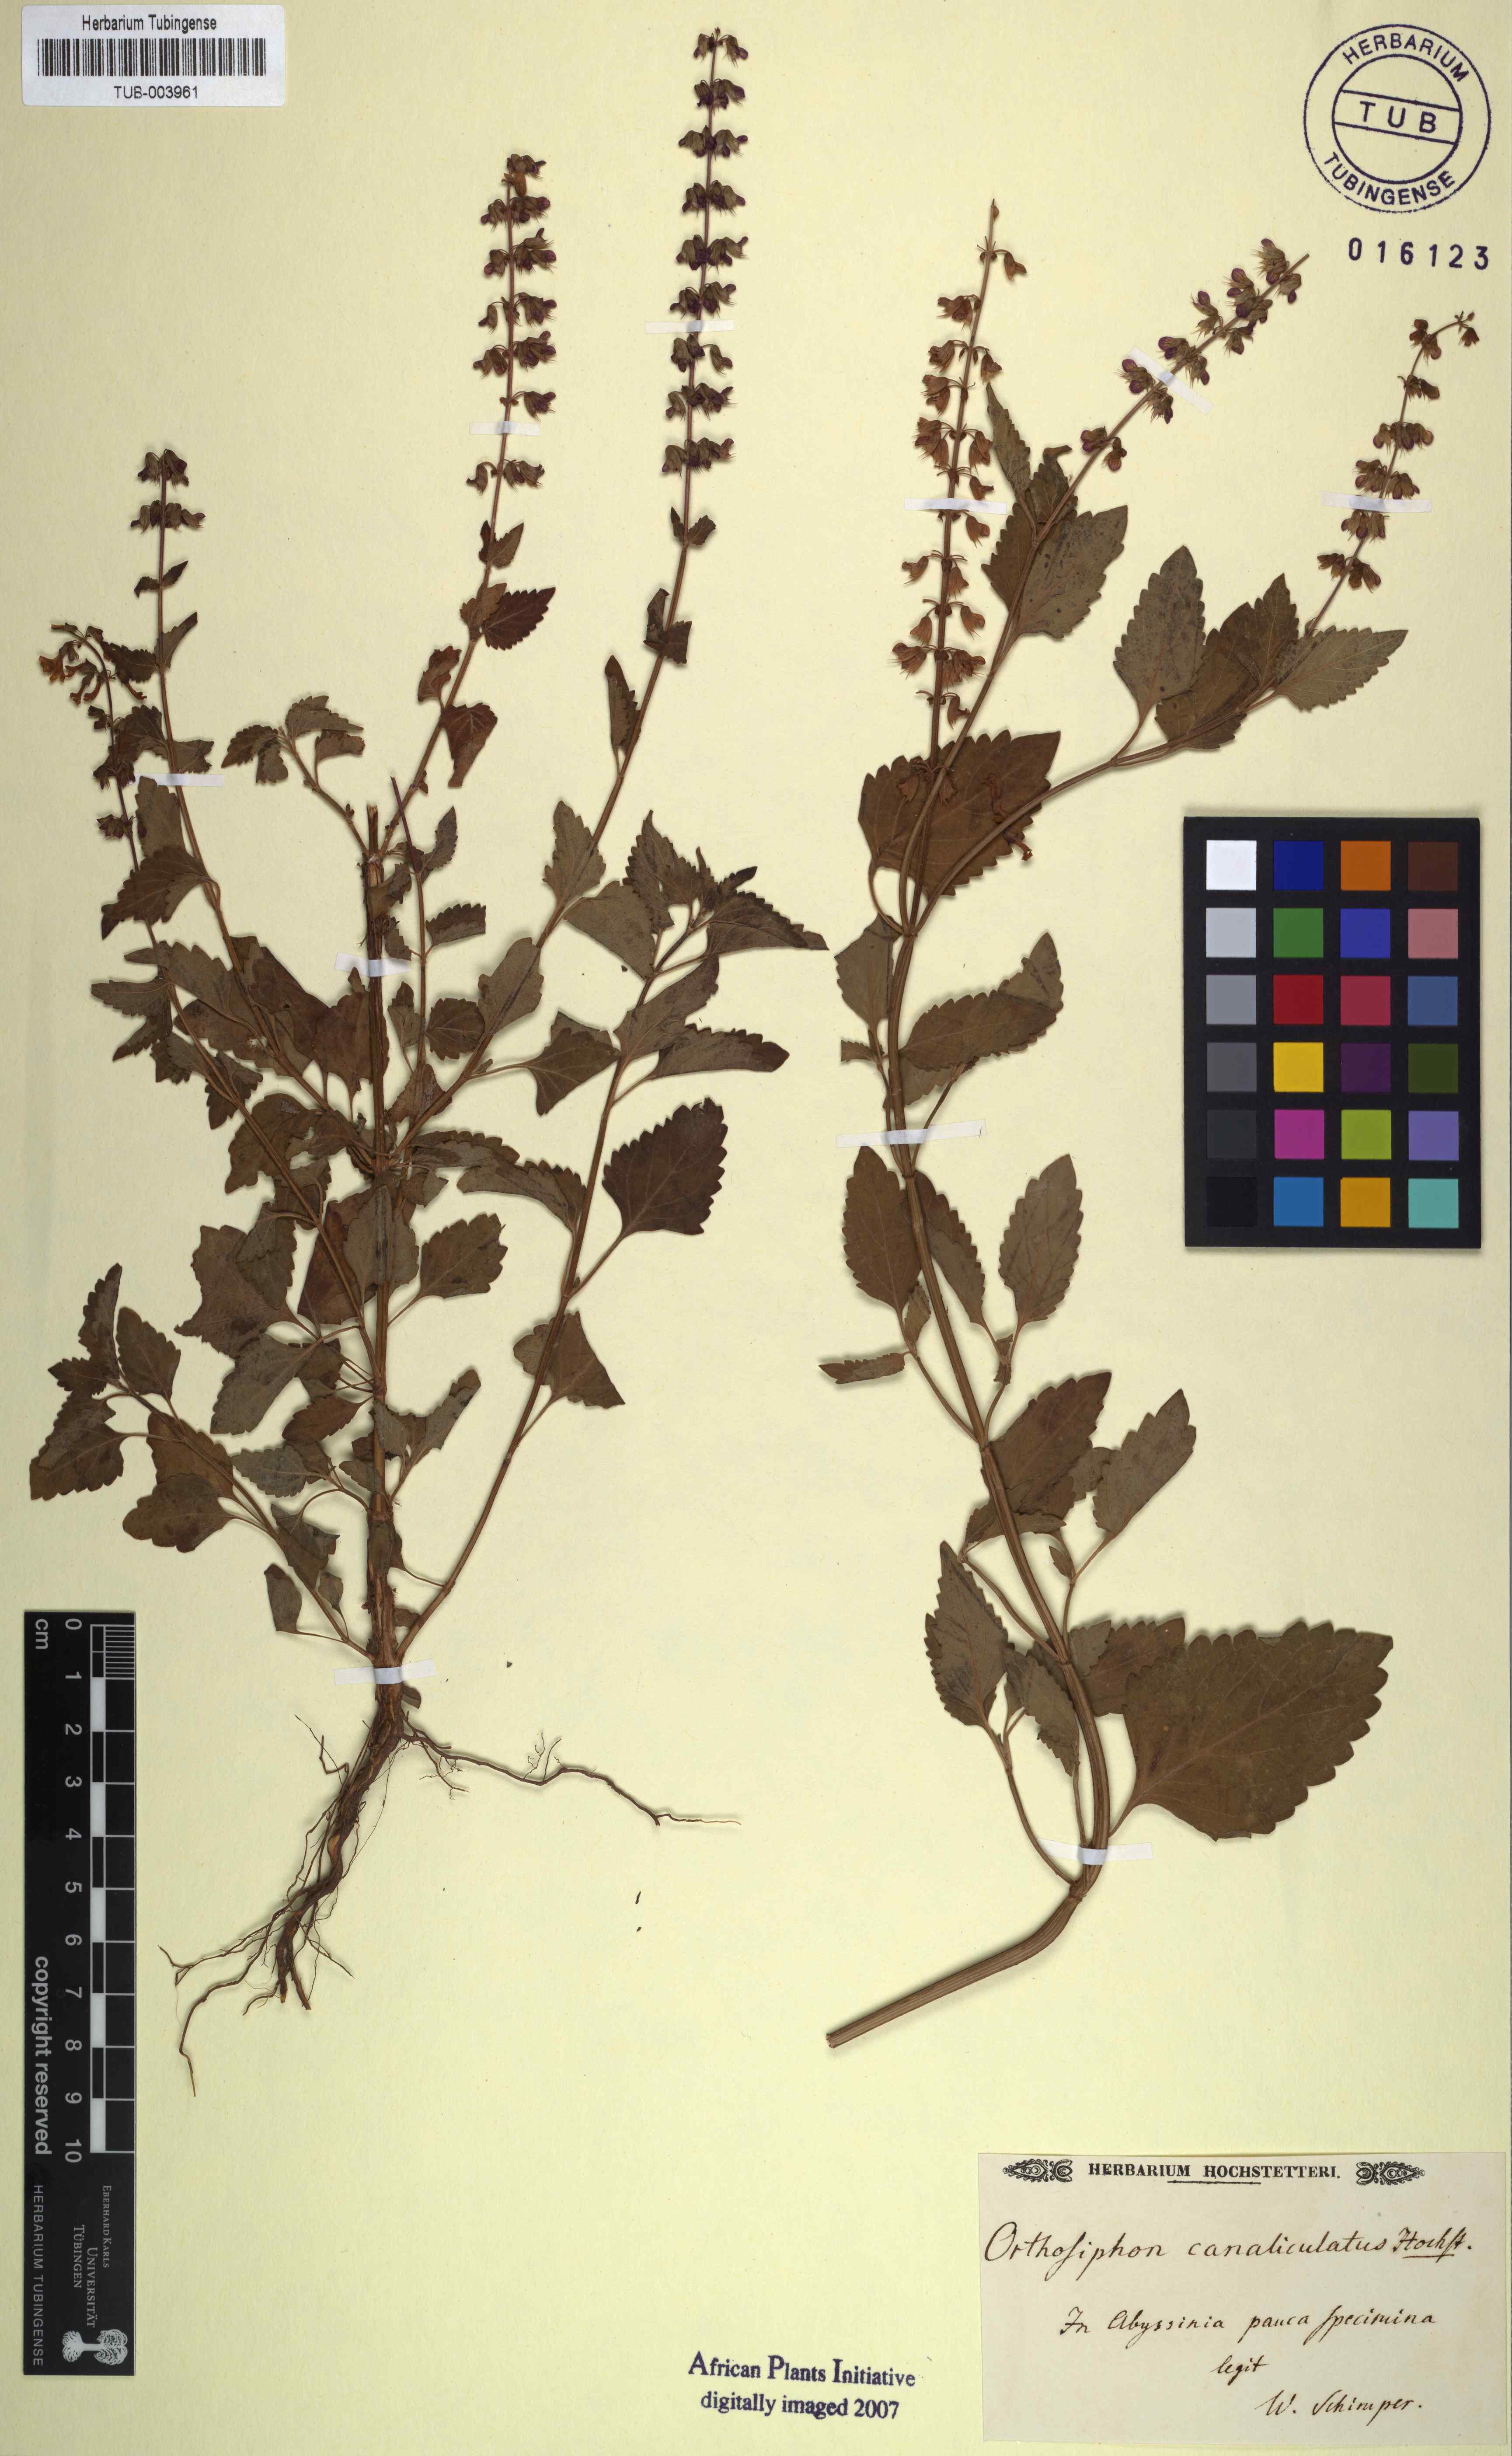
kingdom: Plantae
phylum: Tracheophyta
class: Magnoliopsida
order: Lamiales
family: Lamiaceae
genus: Orthosiphon
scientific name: Orthosiphon
